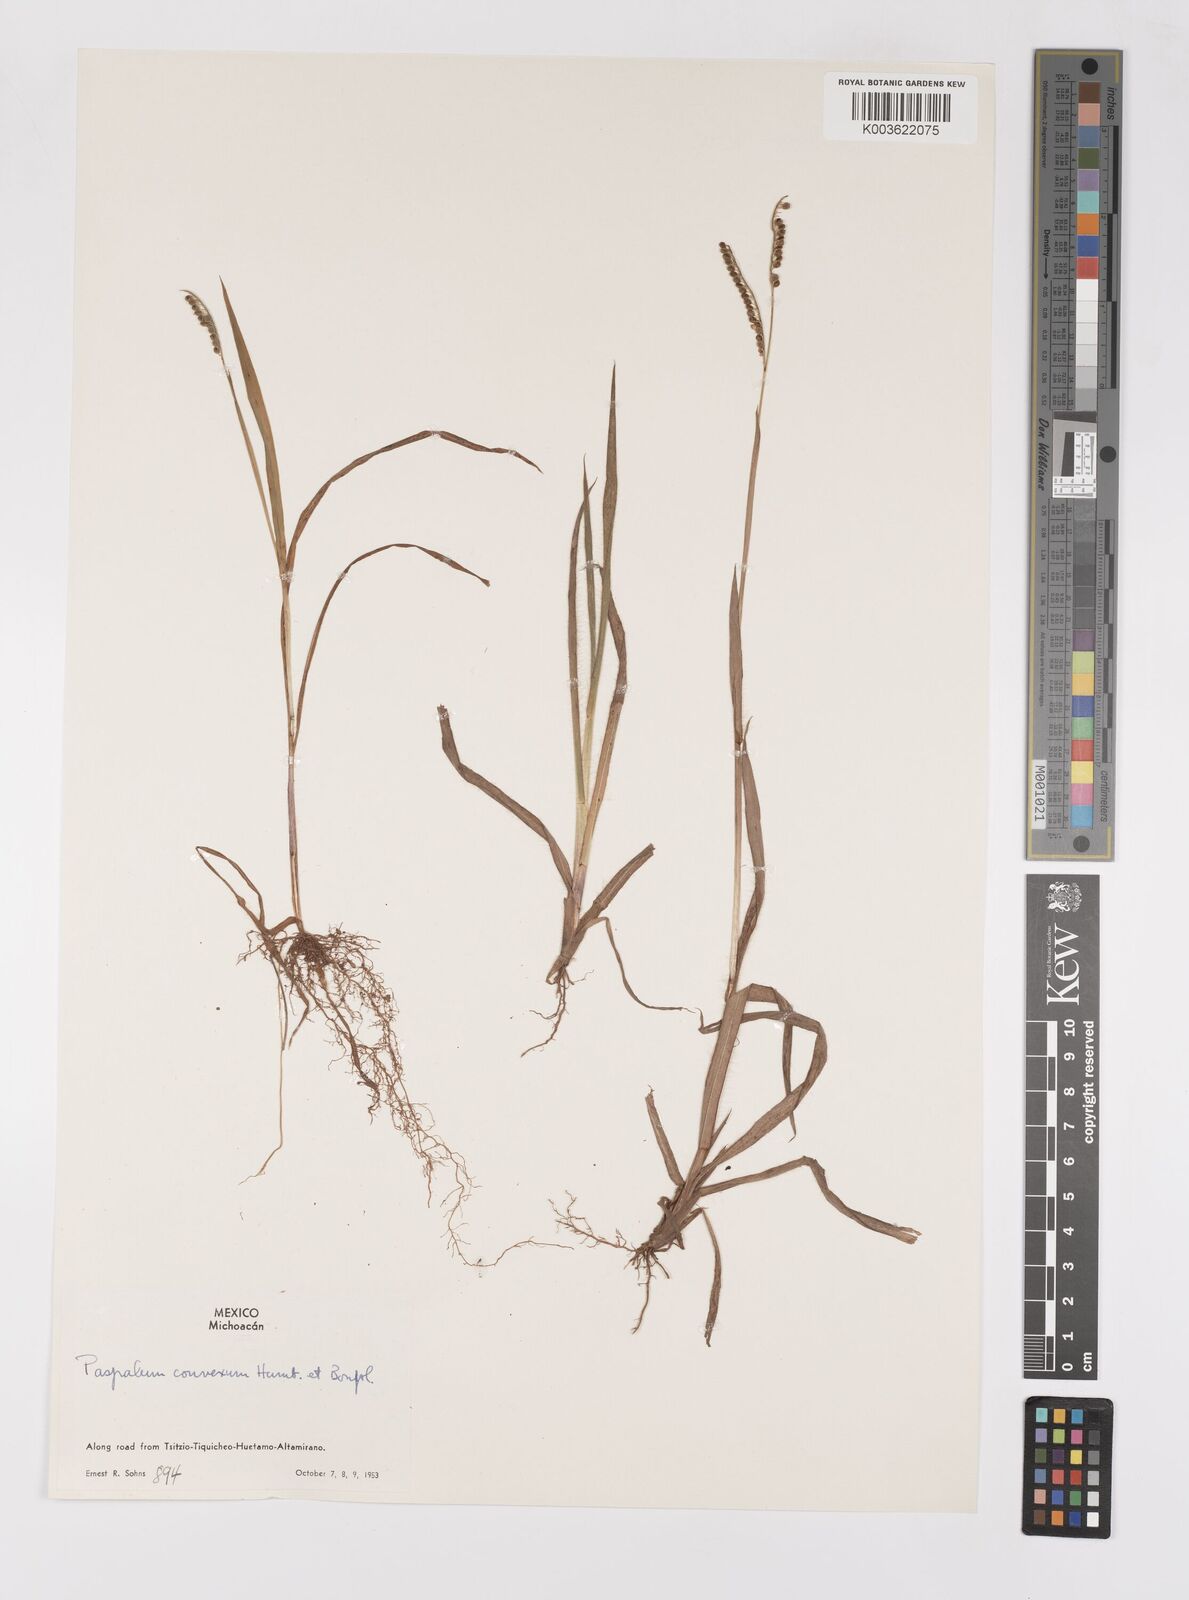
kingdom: Plantae
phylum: Tracheophyta
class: Liliopsida
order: Poales
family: Poaceae
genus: Paspalum
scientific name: Paspalum convexum
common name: Latin american crowngrass
